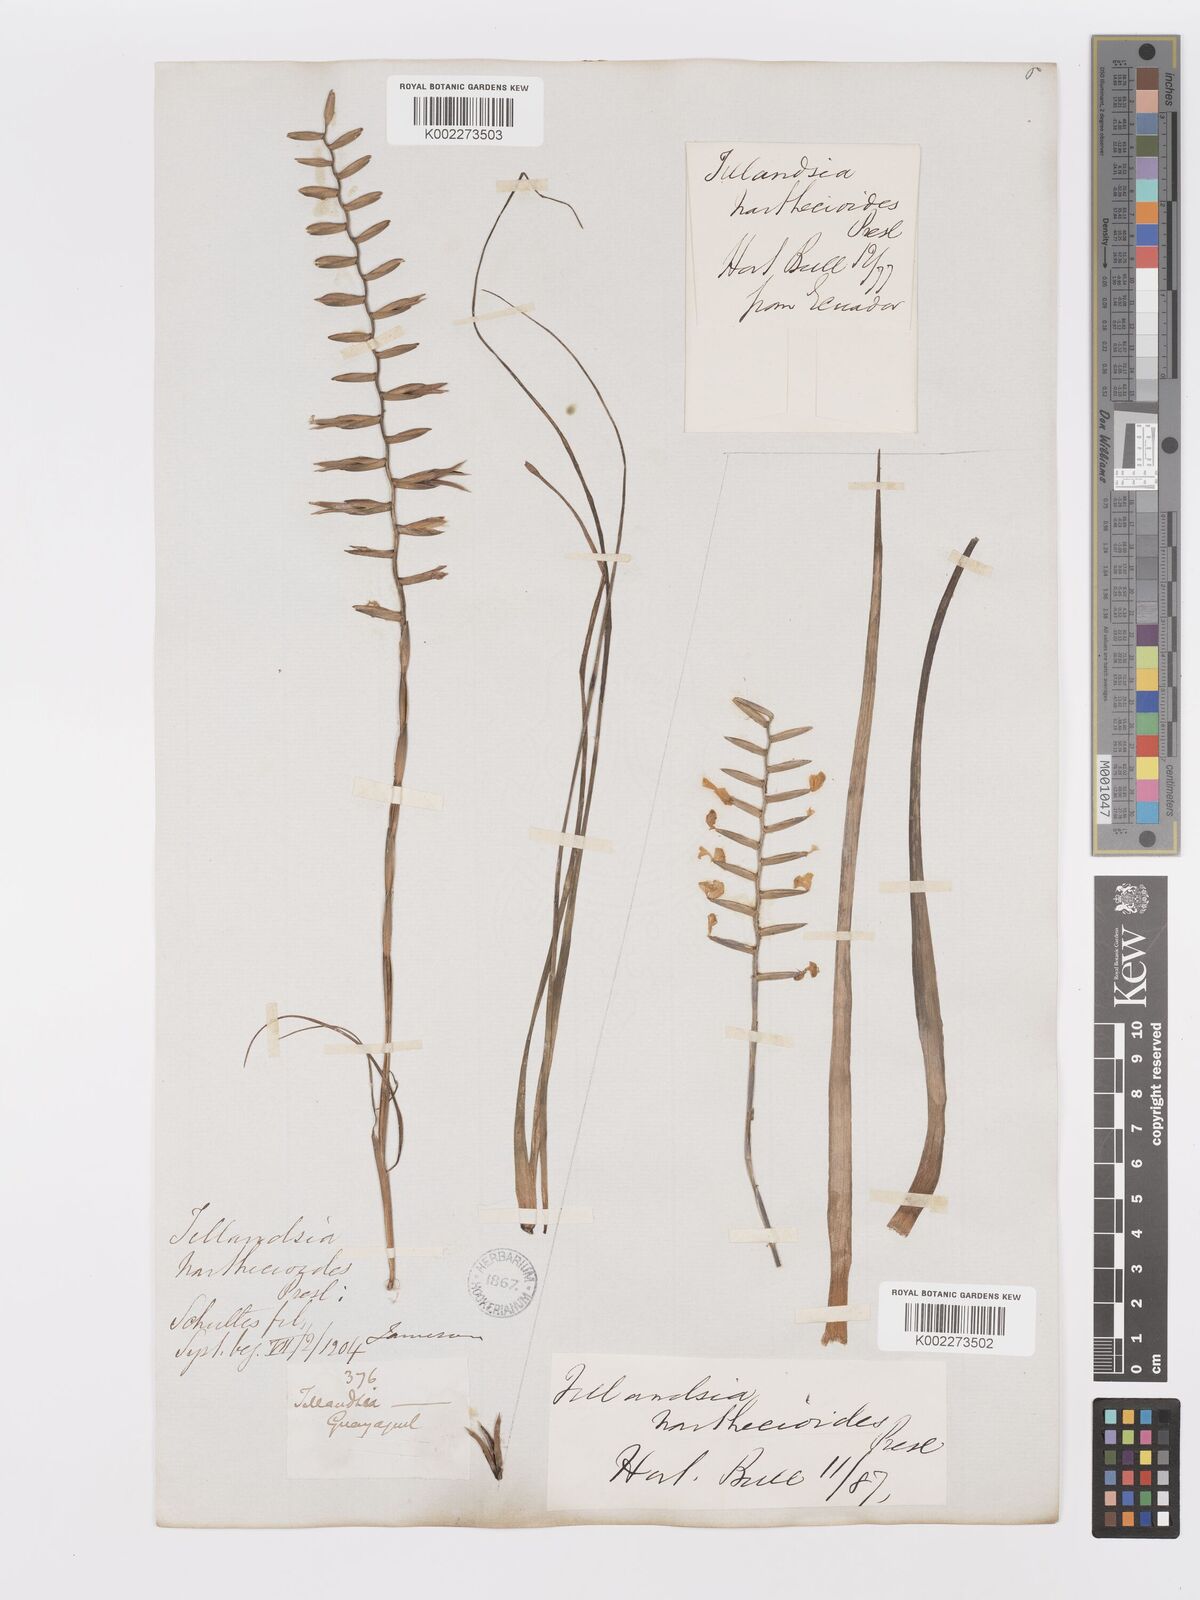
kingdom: Plantae
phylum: Tracheophyta
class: Liliopsida
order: Poales
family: Bromeliaceae
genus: Lemeltonia
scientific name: Lemeltonia narthecioides
